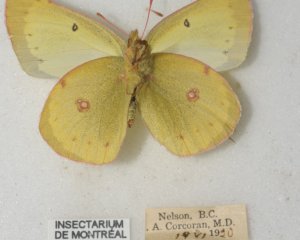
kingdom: Animalia
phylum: Arthropoda
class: Insecta
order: Lepidoptera
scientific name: Lepidoptera
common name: Butterflies
